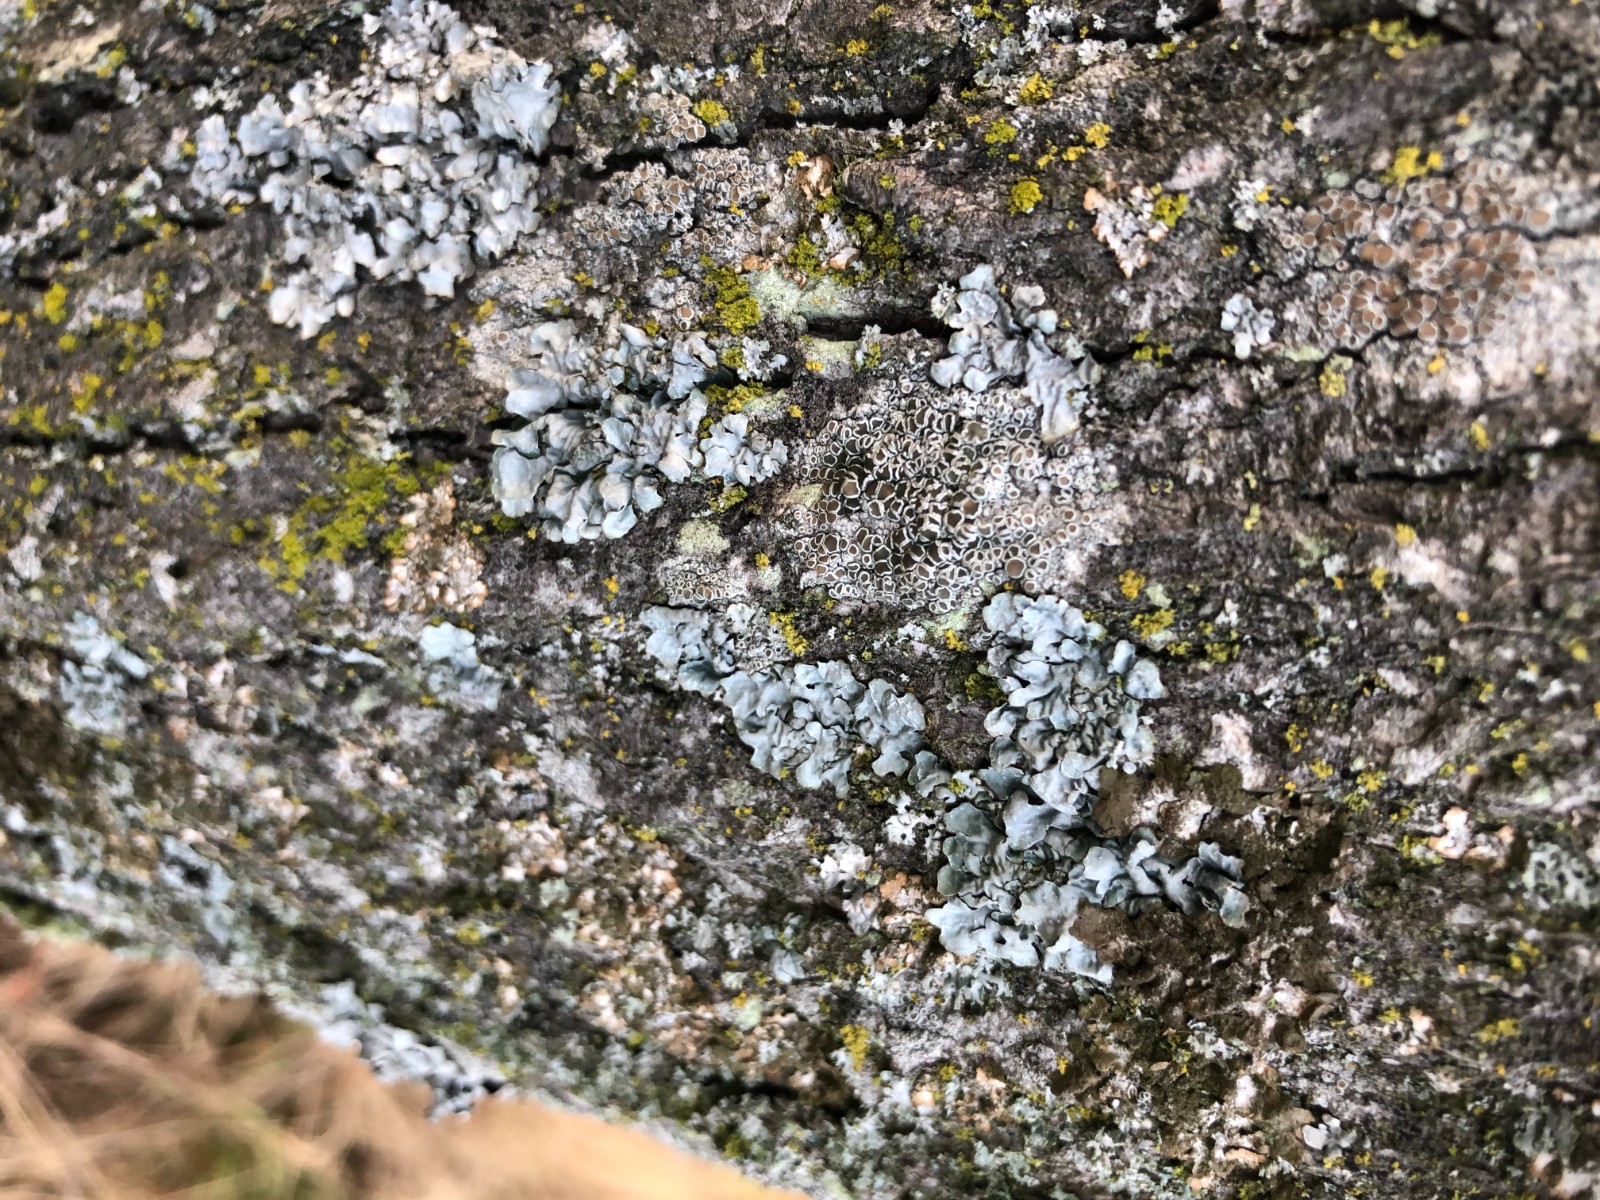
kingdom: Fungi
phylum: Ascomycota
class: Lecanoromycetes
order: Lecanorales
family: Lecanoraceae
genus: Lecanora
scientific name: Lecanora chlarotera
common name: brun kantskivelav
